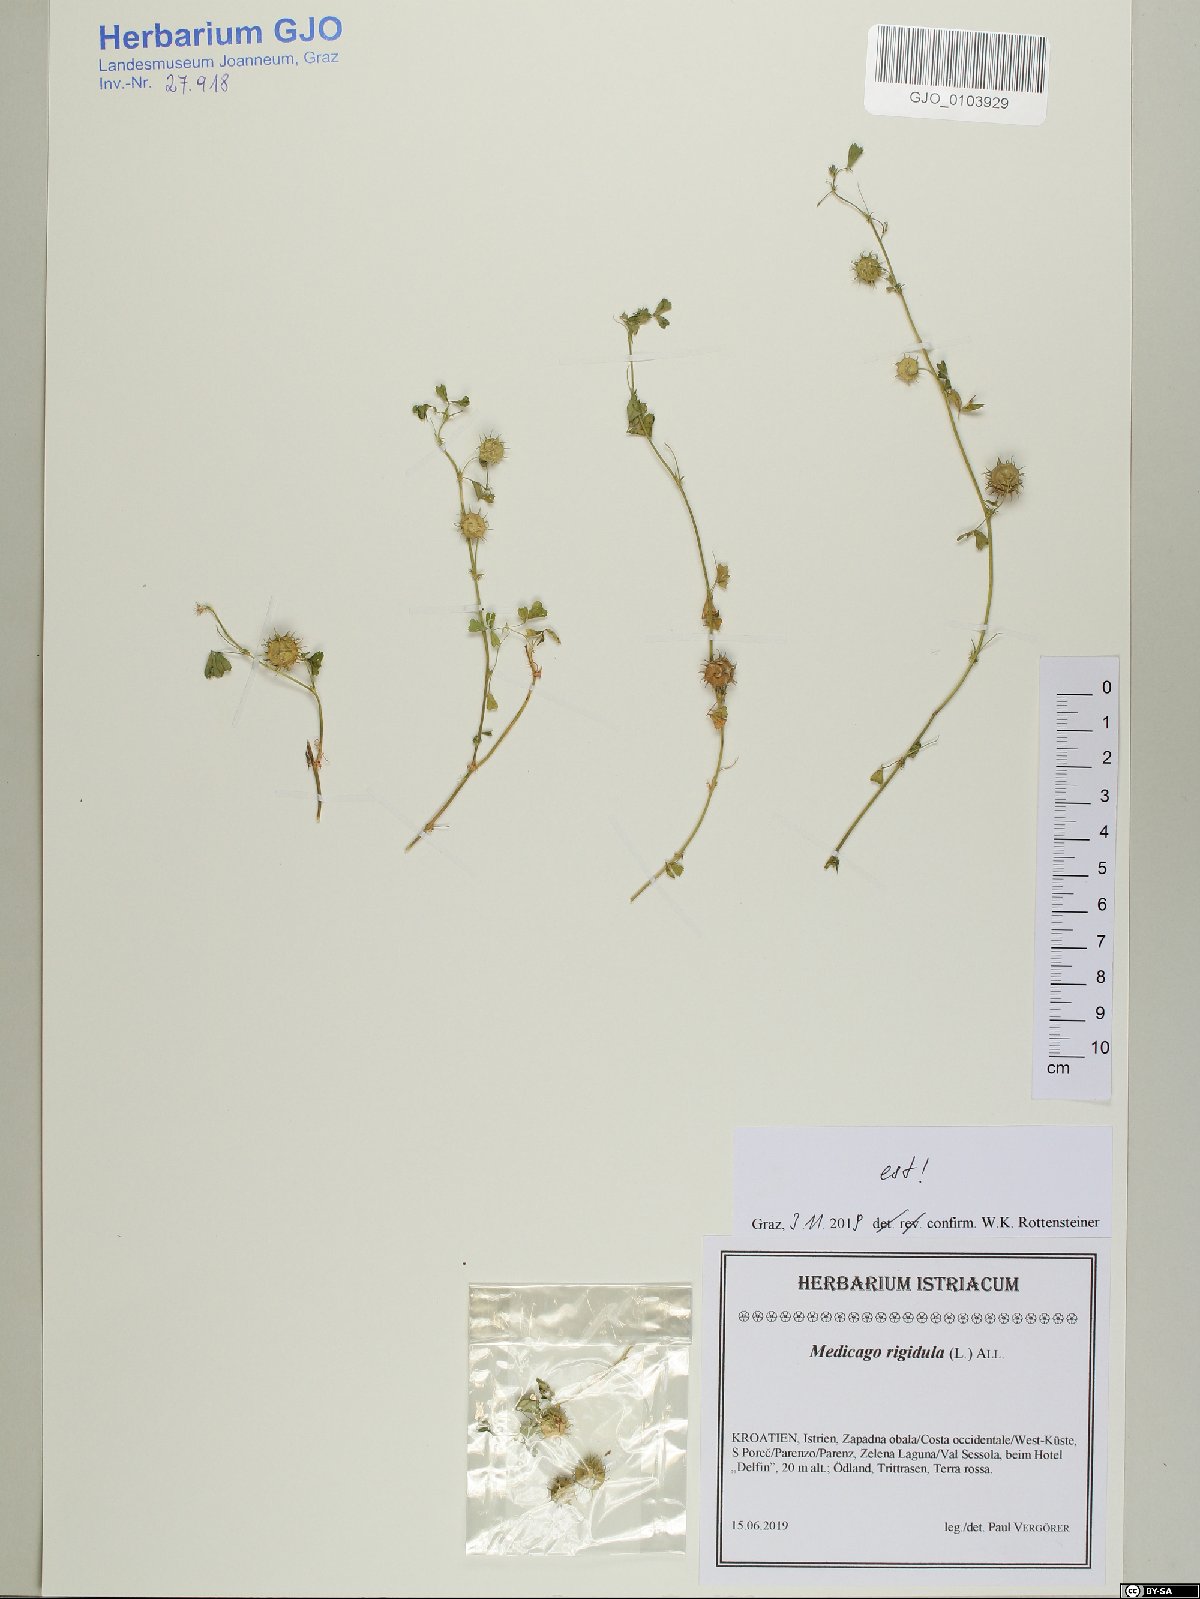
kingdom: Plantae
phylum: Tracheophyta
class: Magnoliopsida
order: Fabales
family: Fabaceae
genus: Medicago
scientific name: Medicago rigidula
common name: Tifton medic
